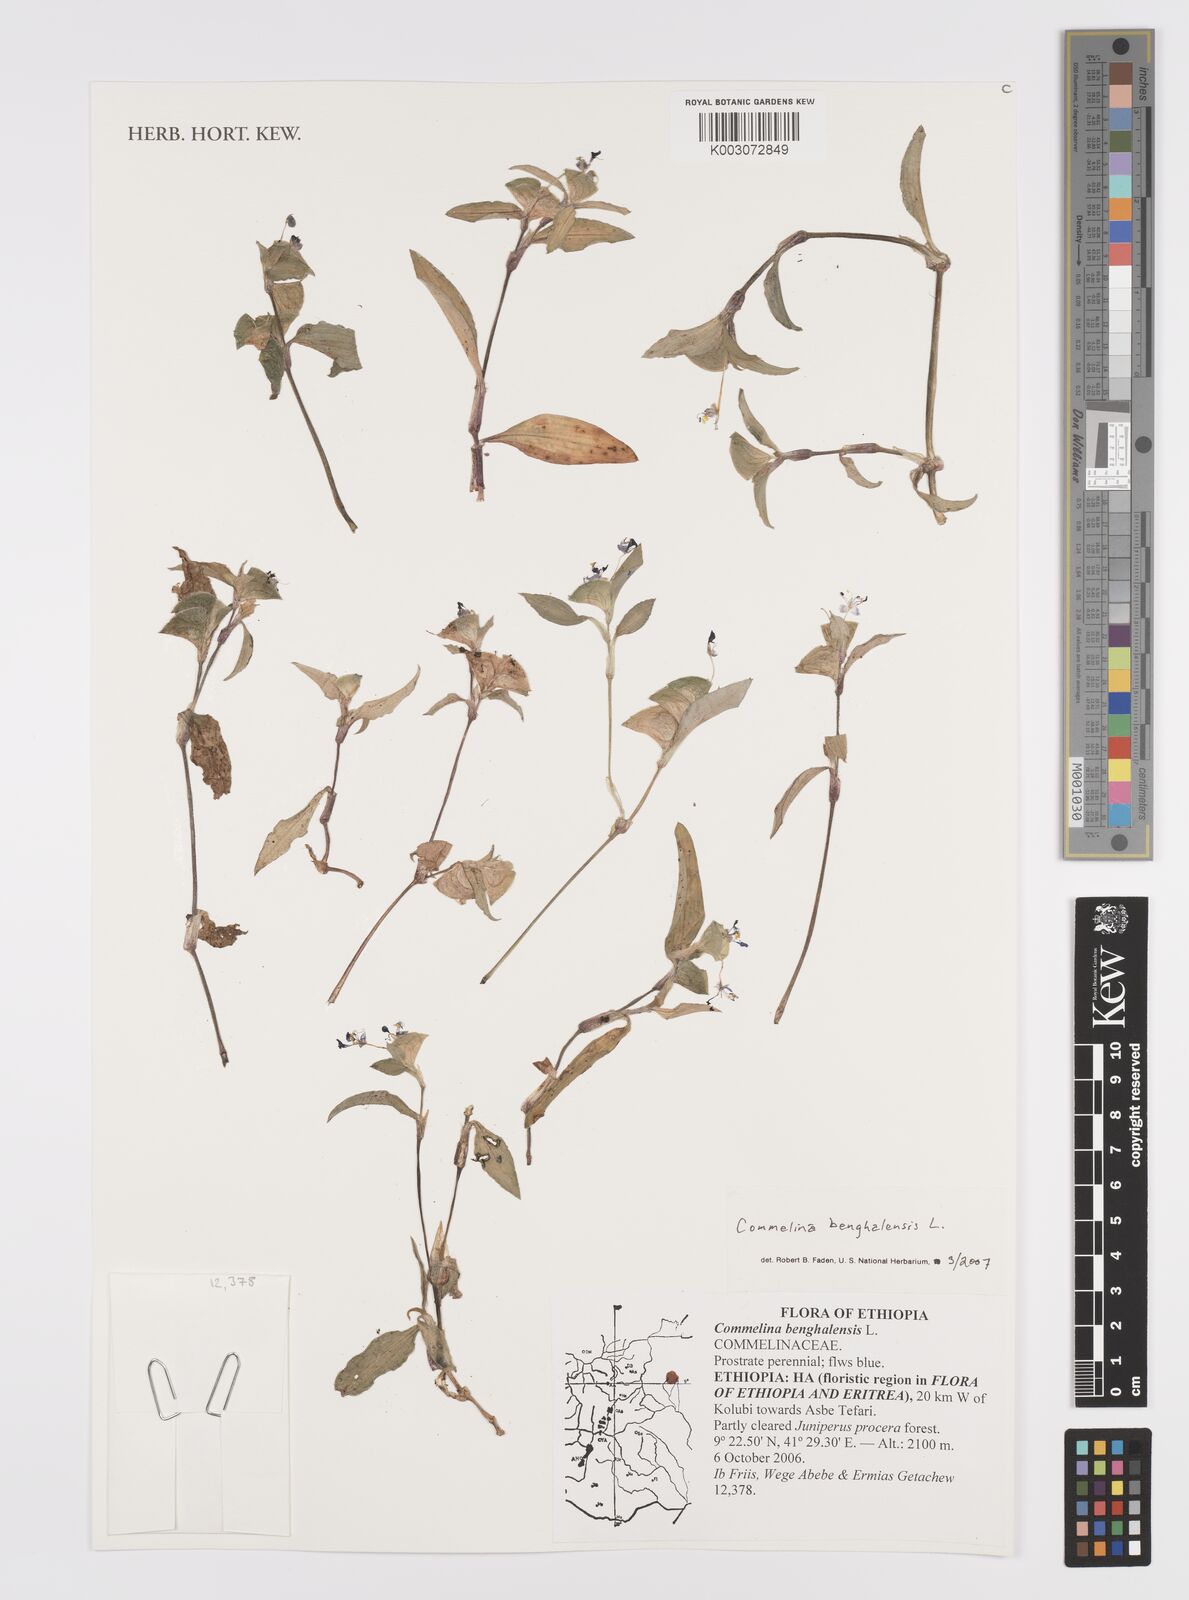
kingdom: Plantae
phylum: Tracheophyta
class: Liliopsida
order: Commelinales
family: Commelinaceae
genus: Commelina
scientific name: Commelina benghalensis
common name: Jio
